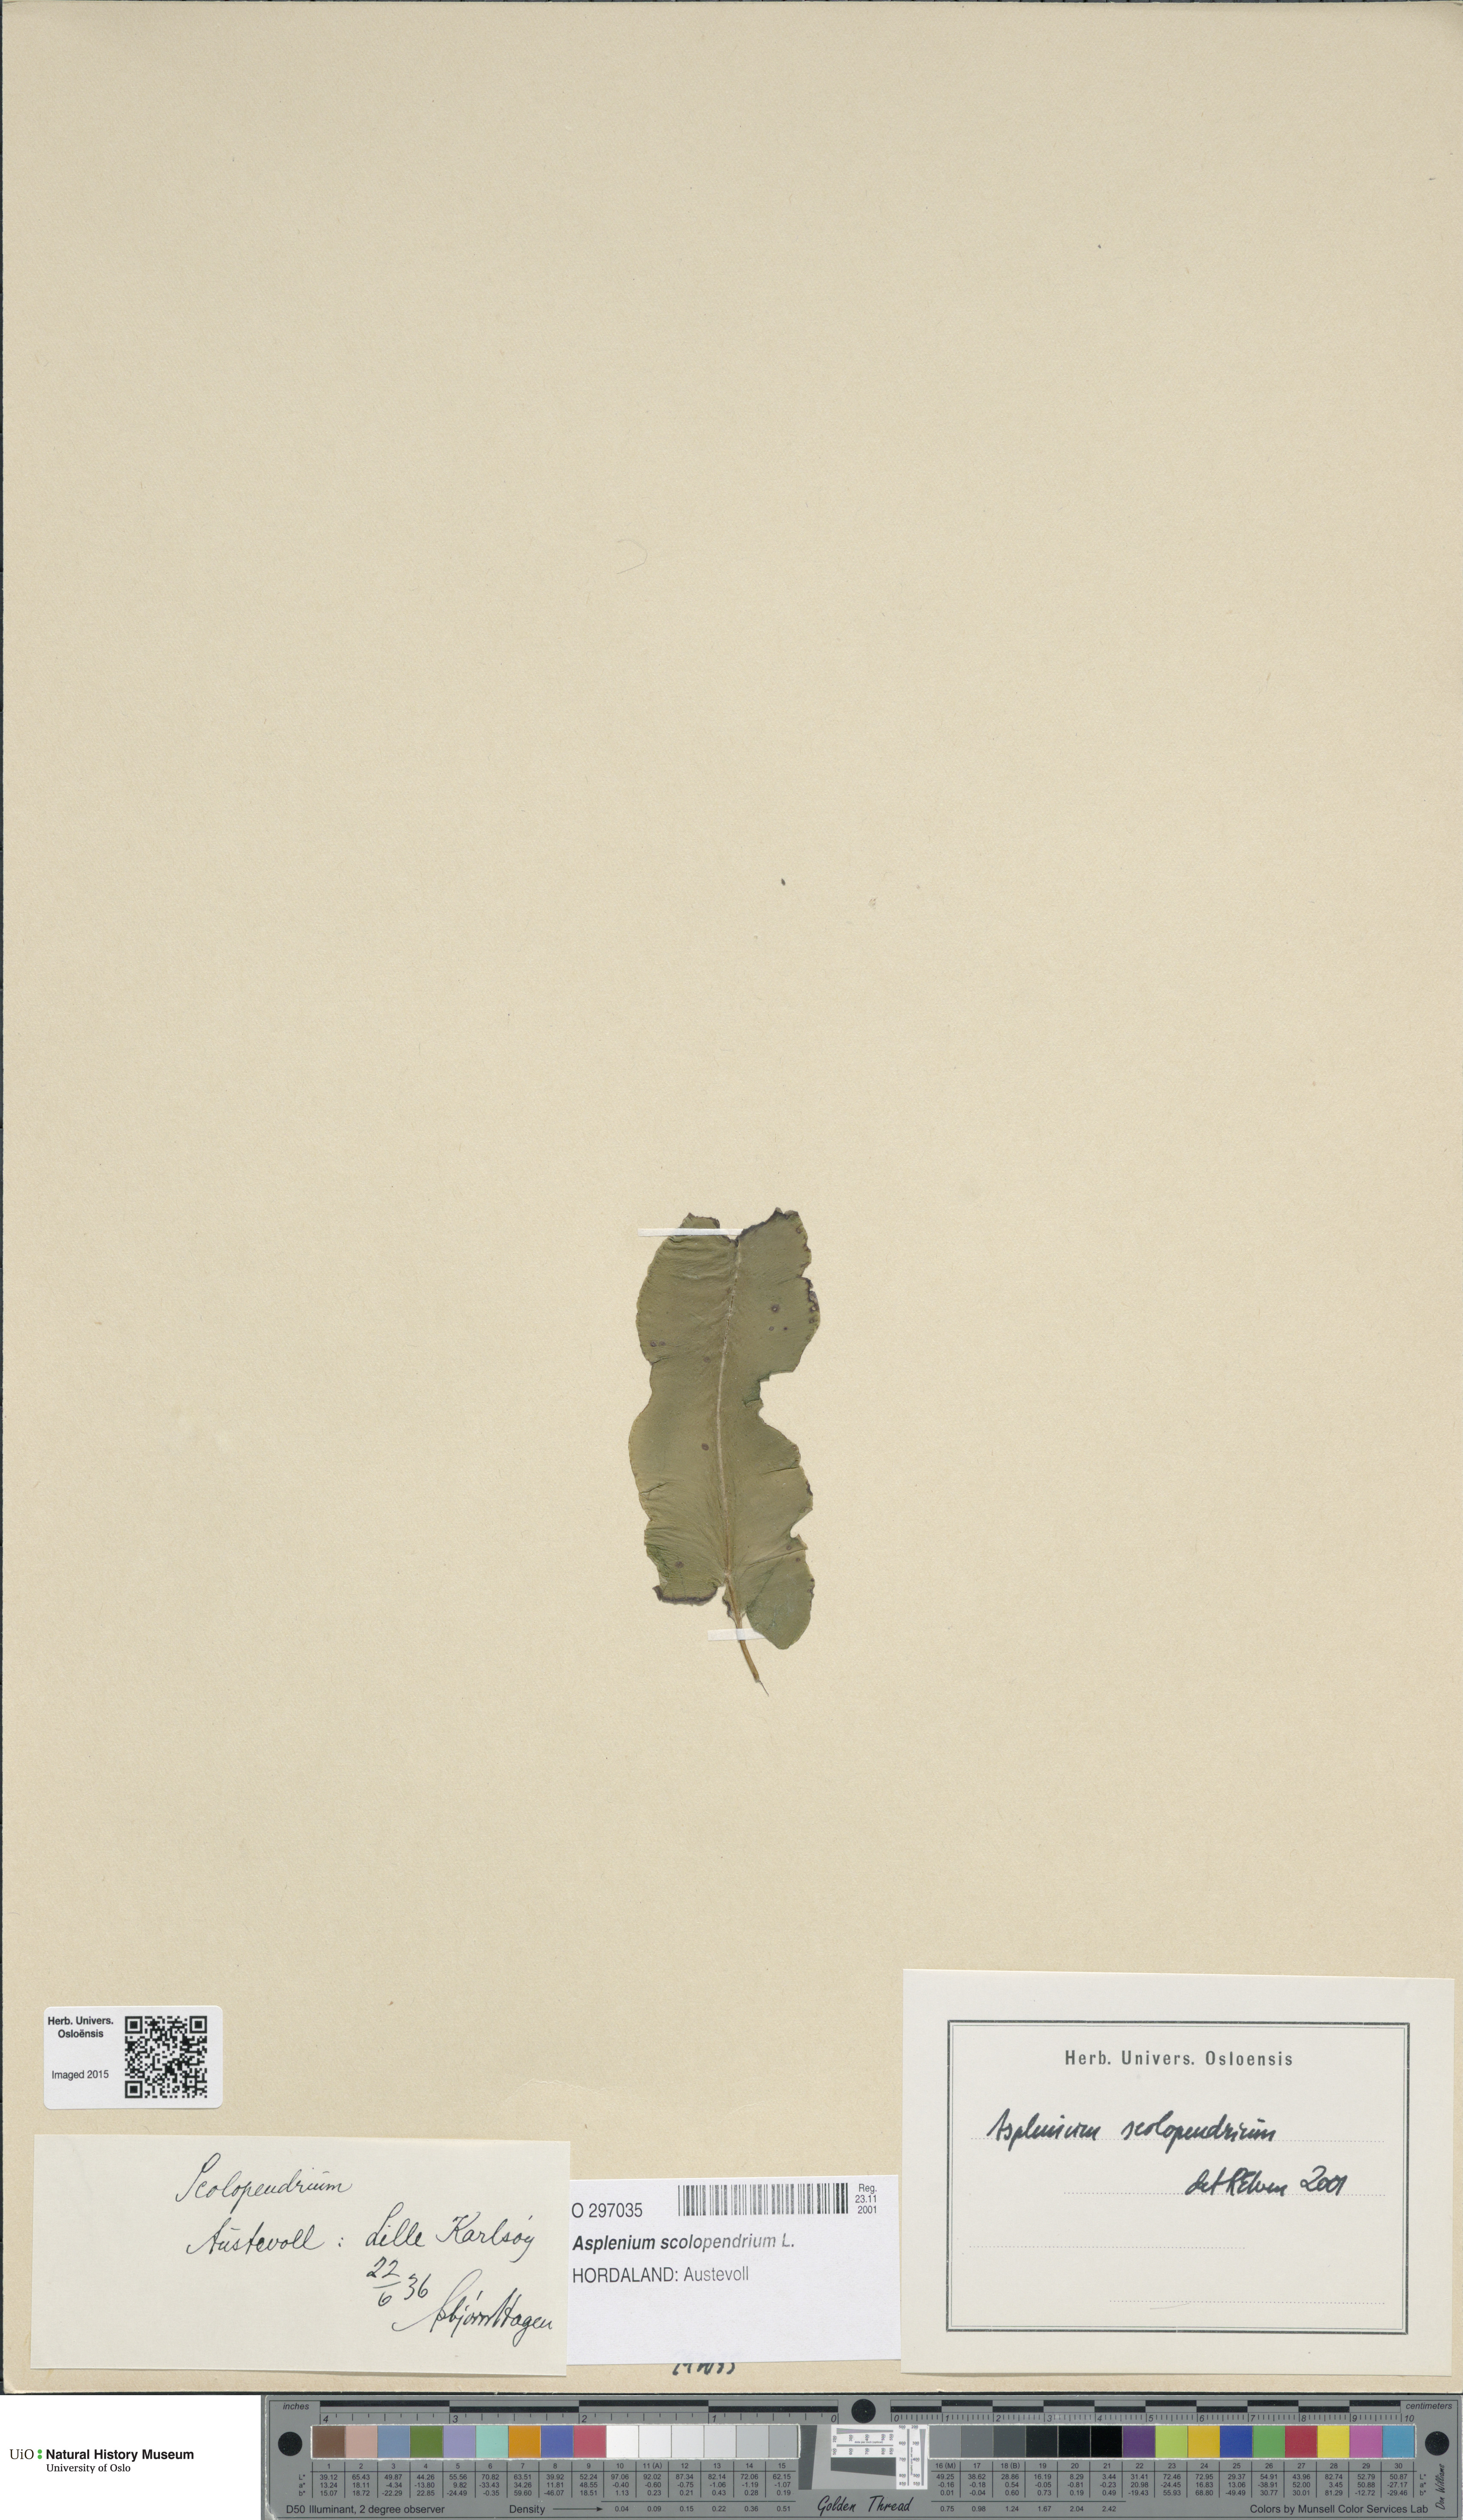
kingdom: Plantae
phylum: Tracheophyta
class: Polypodiopsida
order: Polypodiales
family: Aspleniaceae
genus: Asplenium
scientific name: Asplenium scolopendrium
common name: Hart's-tongue fern
